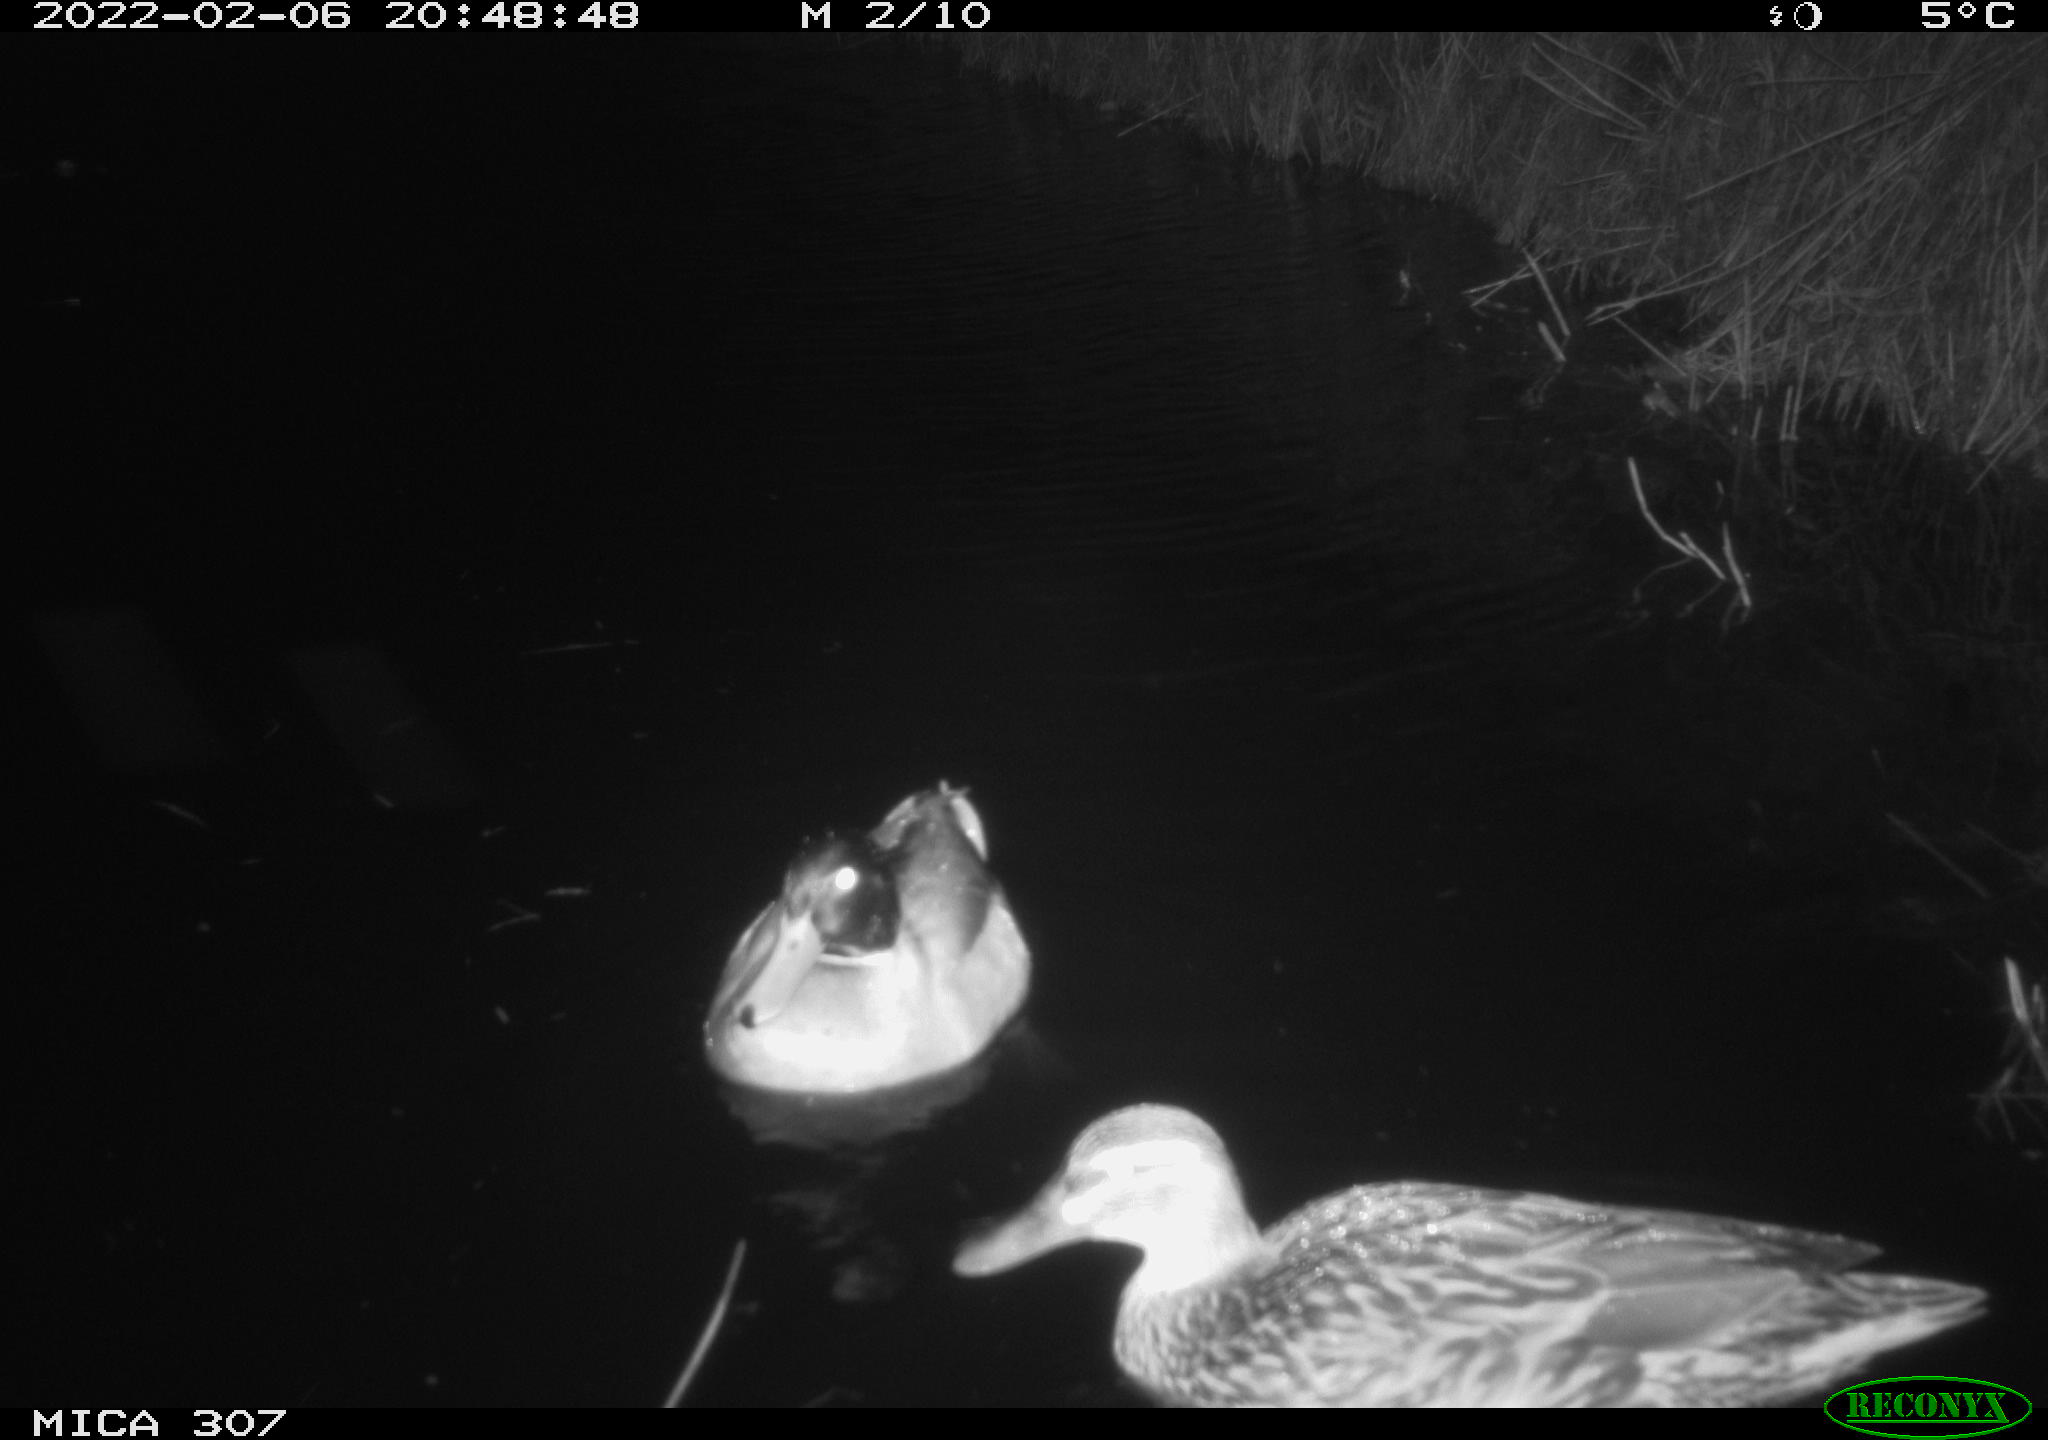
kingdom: Animalia
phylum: Chordata
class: Aves
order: Anseriformes
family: Anatidae
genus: Anas
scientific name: Anas platyrhynchos
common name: Mallard
